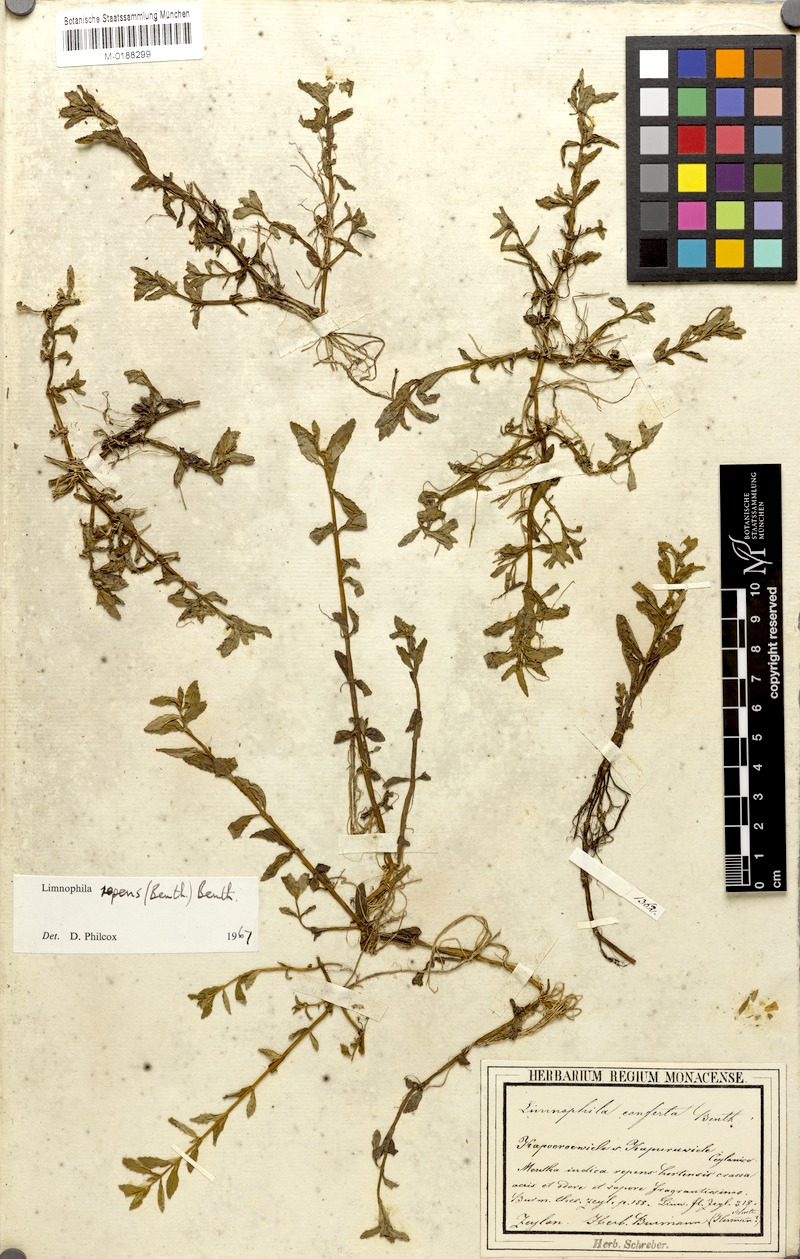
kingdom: Plantae
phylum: Tracheophyta
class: Magnoliopsida
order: Lamiales
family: Plantaginaceae
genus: Limnophila
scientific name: Limnophila repens
